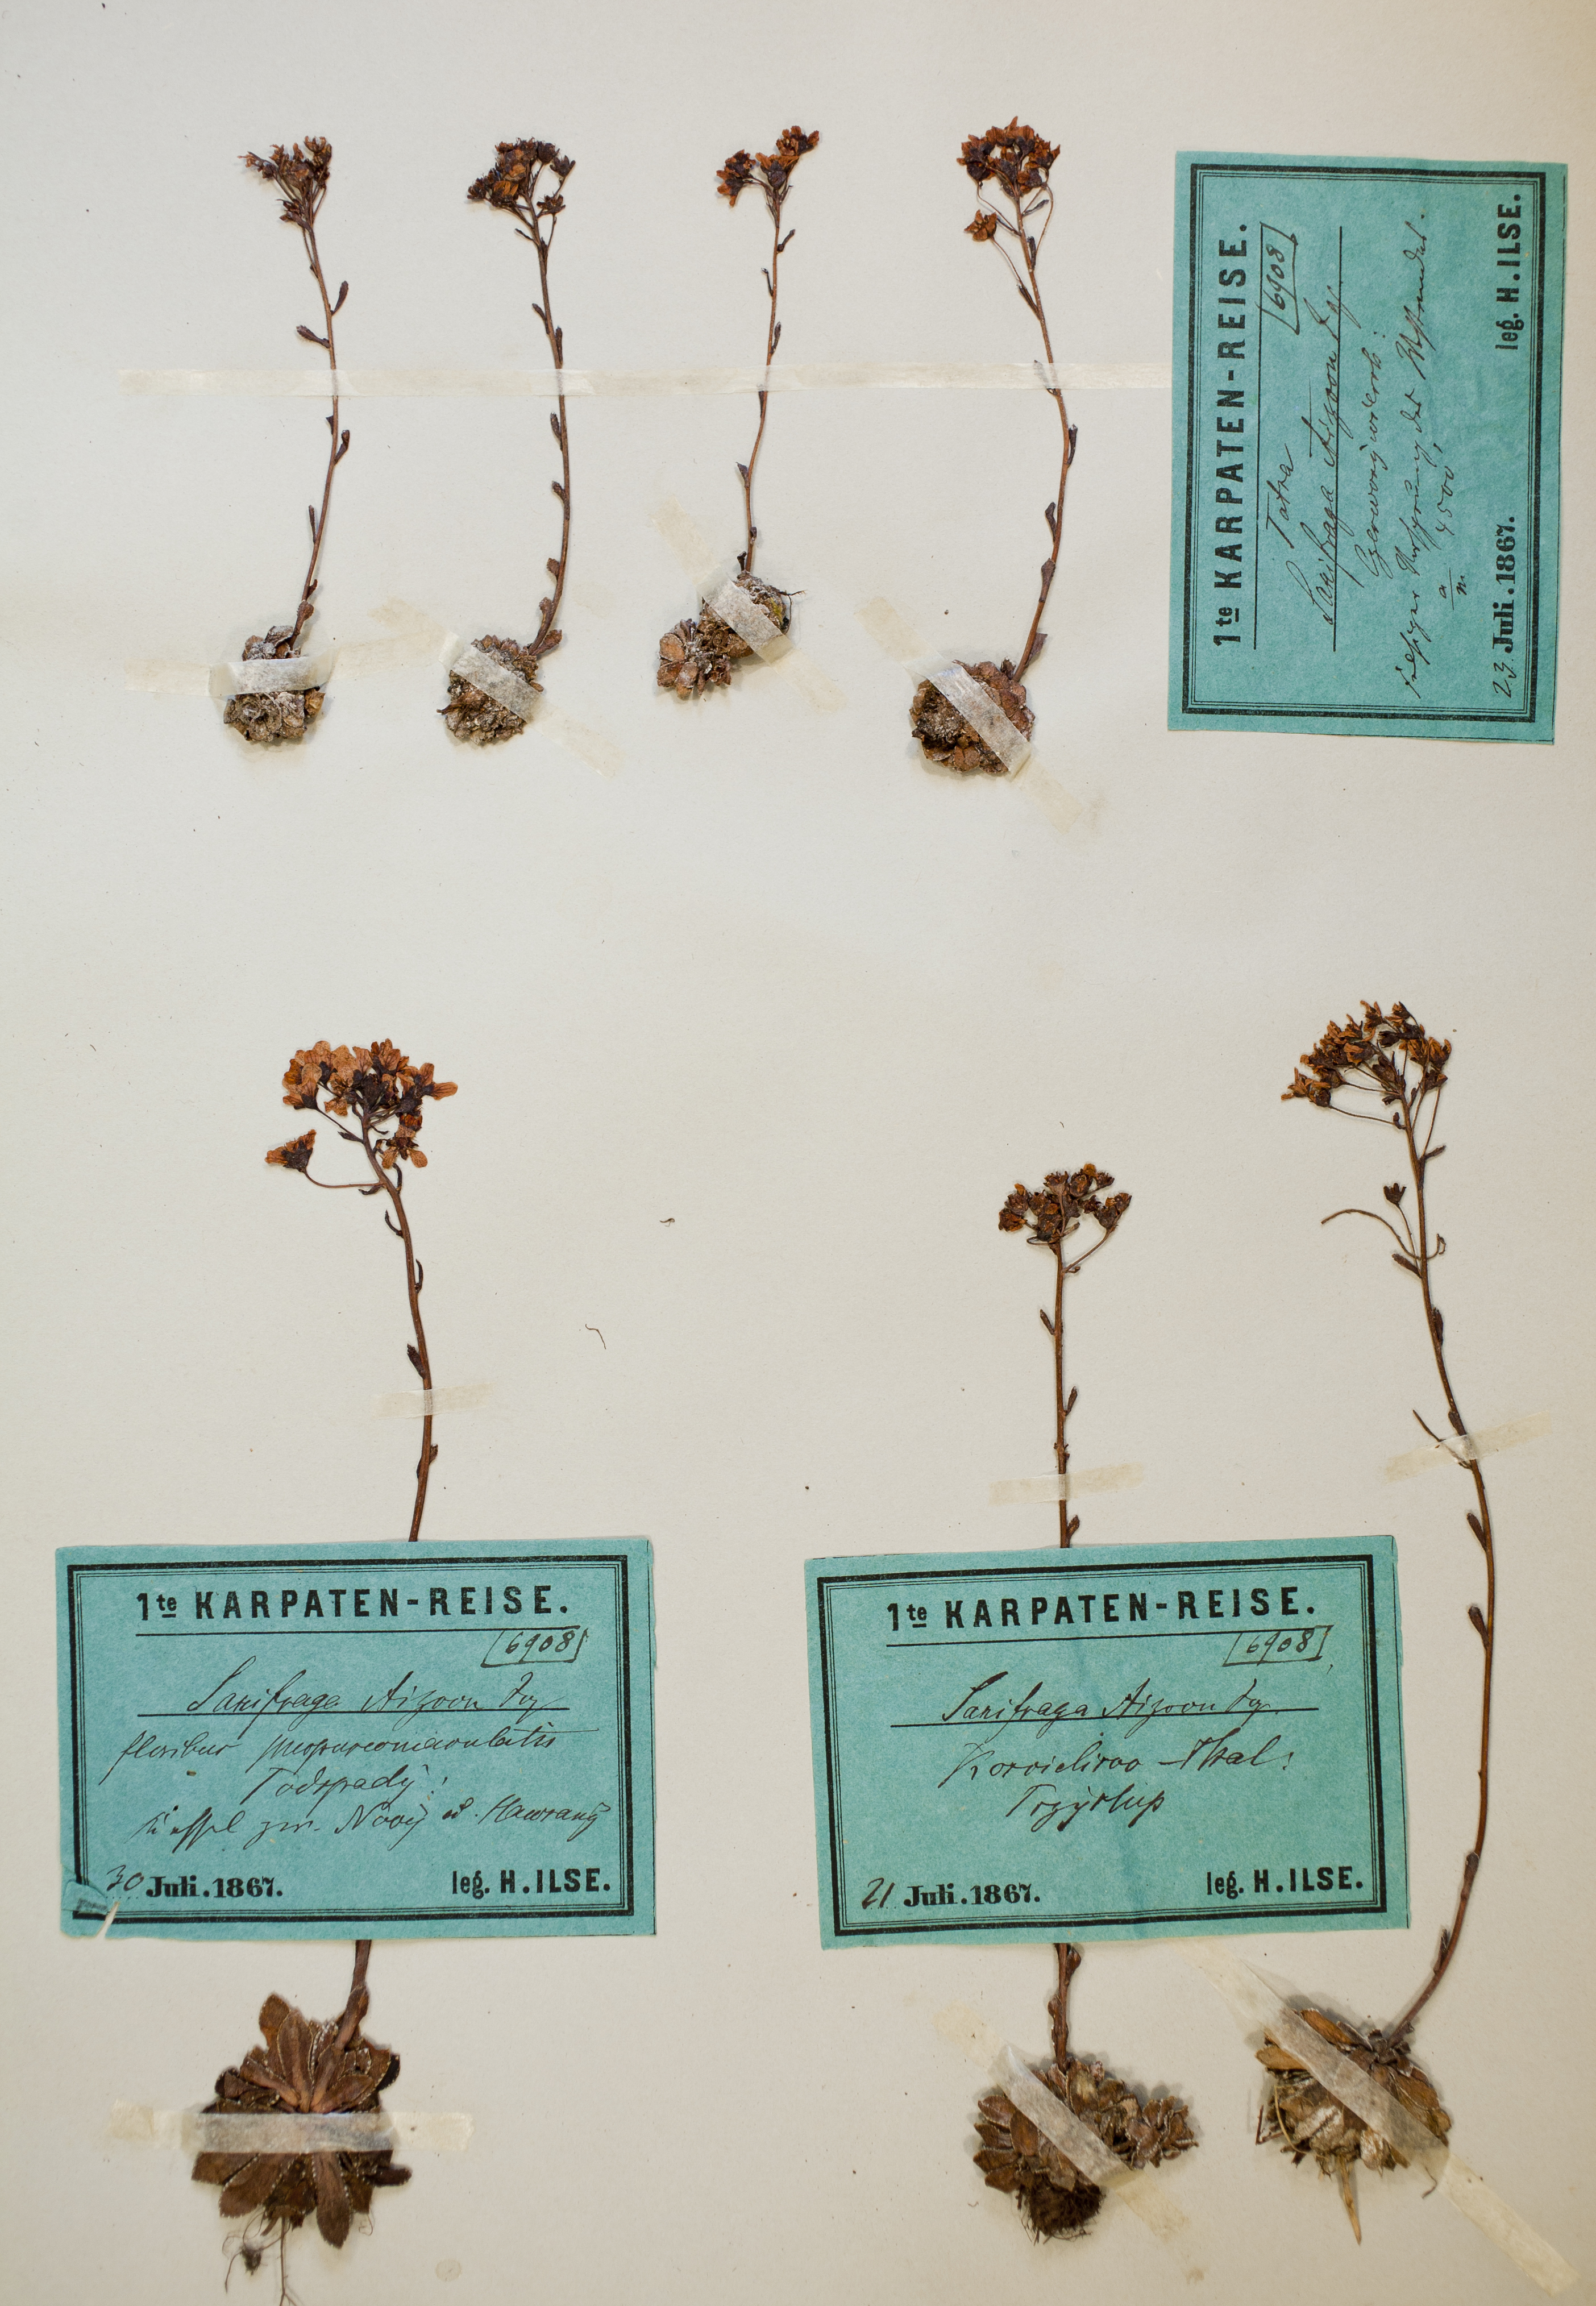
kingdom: Plantae
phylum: Tracheophyta
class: Magnoliopsida
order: Saxifragales
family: Saxifragaceae
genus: Saxifraga
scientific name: Saxifraga paniculata
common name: Livelong saxifrage
